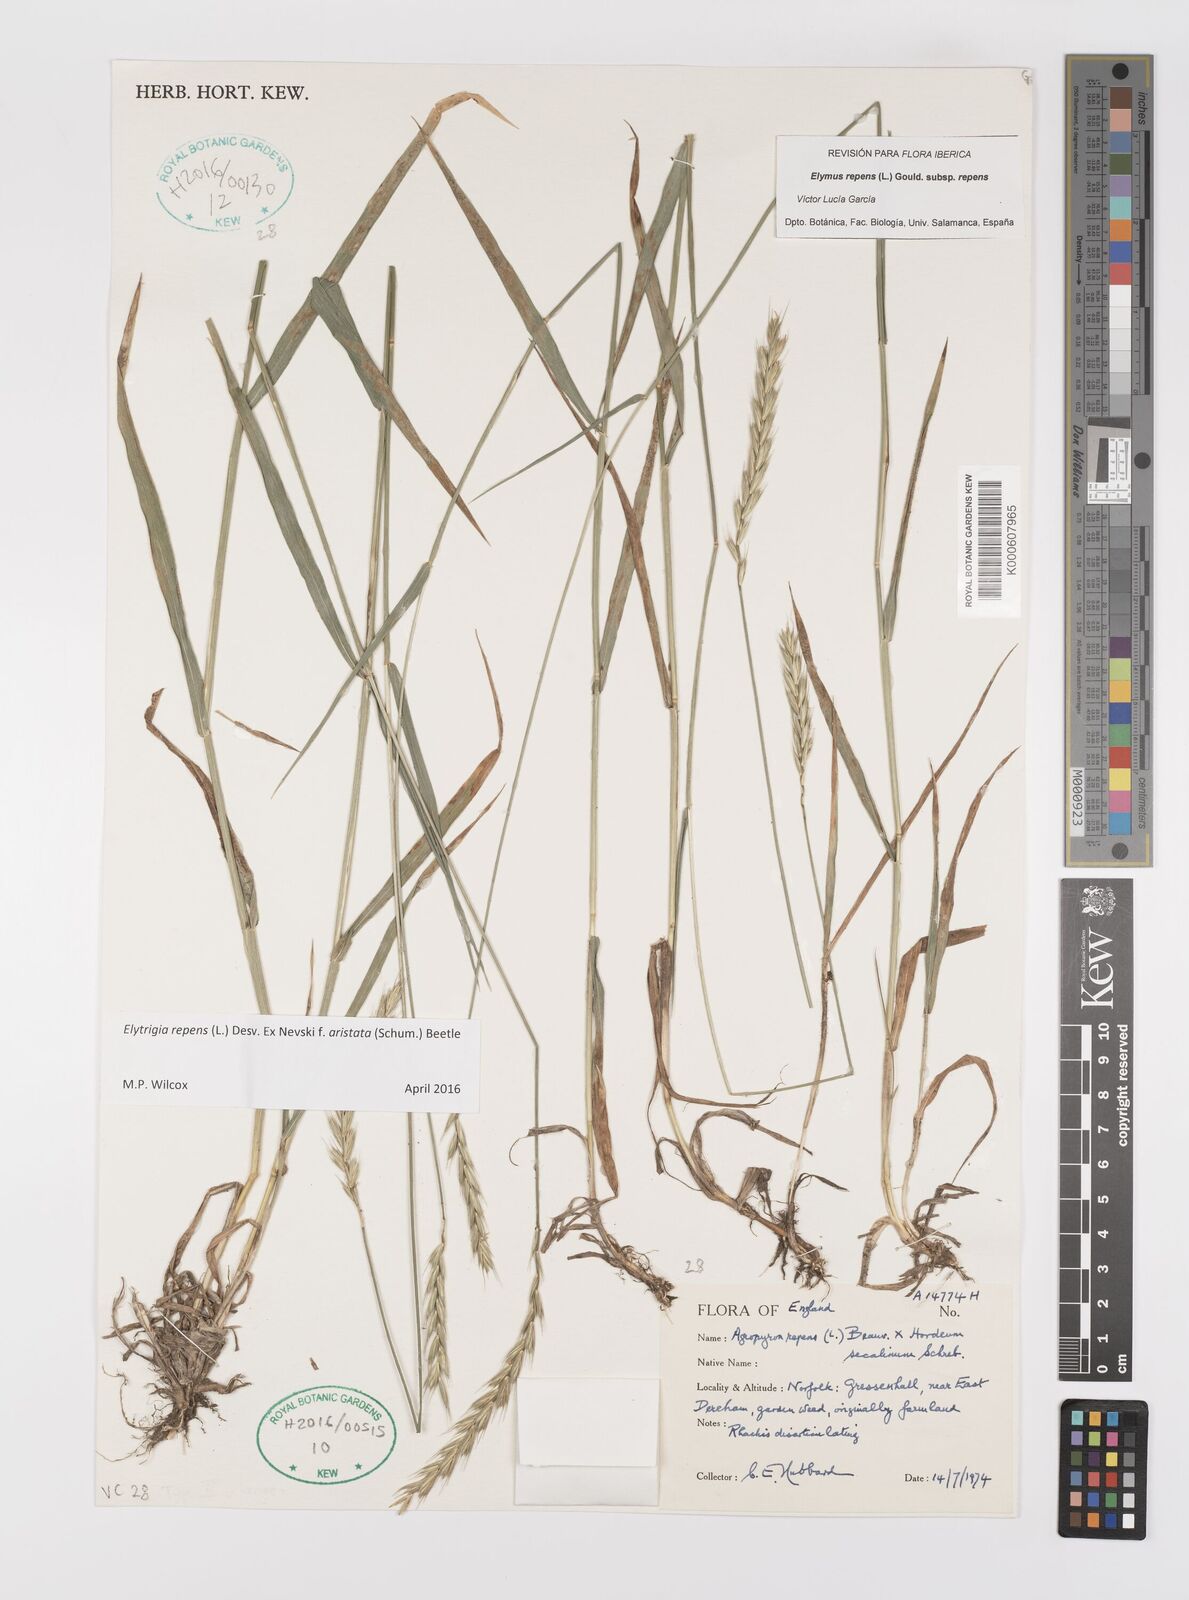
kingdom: Plantae
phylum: Tracheophyta
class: Liliopsida
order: Poales
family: Poaceae
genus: Elymus
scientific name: Elymus repens
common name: Quackgrass
